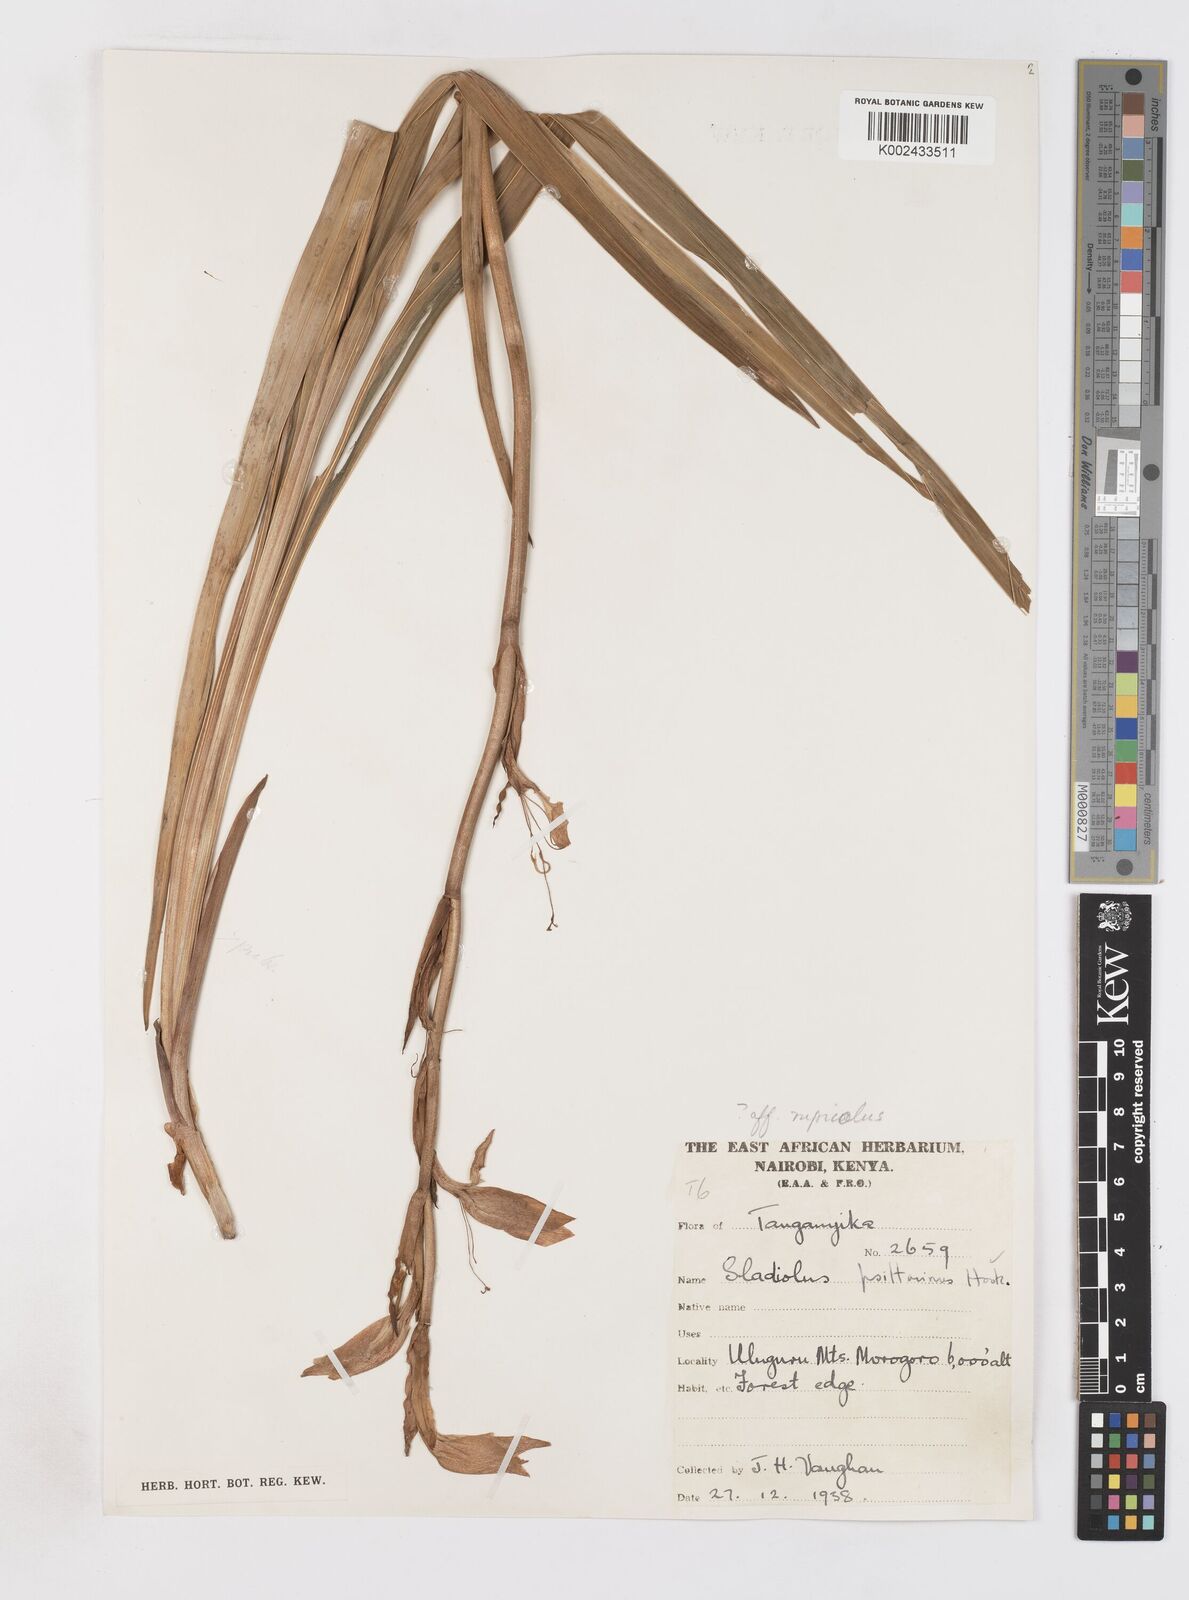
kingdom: Plantae
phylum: Tracheophyta
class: Liliopsida
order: Asparagales
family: Iridaceae
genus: Gladiolus
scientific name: Gladiolus dalenii
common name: Cornflag
